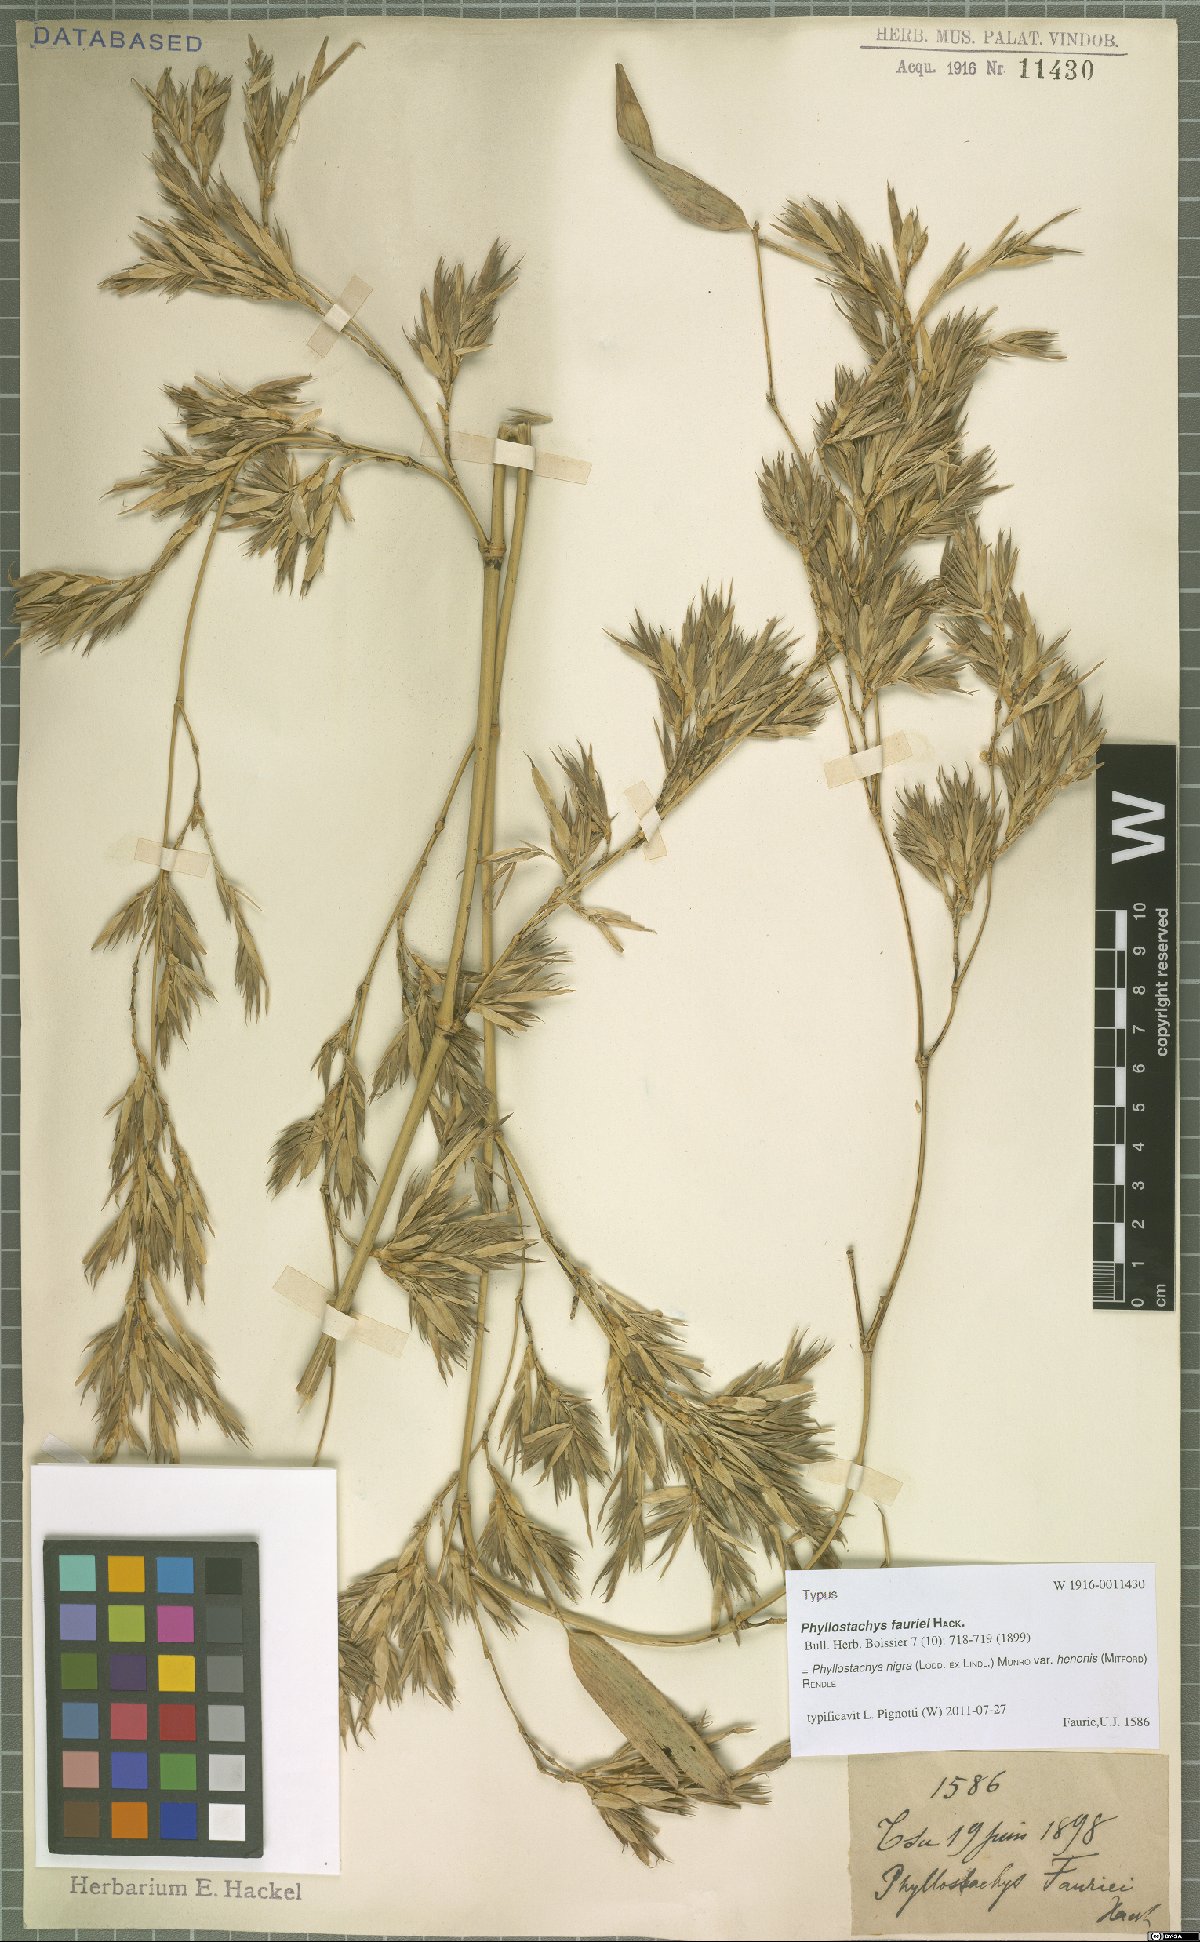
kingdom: Plantae
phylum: Tracheophyta
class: Liliopsida
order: Poales
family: Poaceae
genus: Phyllostachys
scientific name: Phyllostachys nigra
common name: Black bamboo
